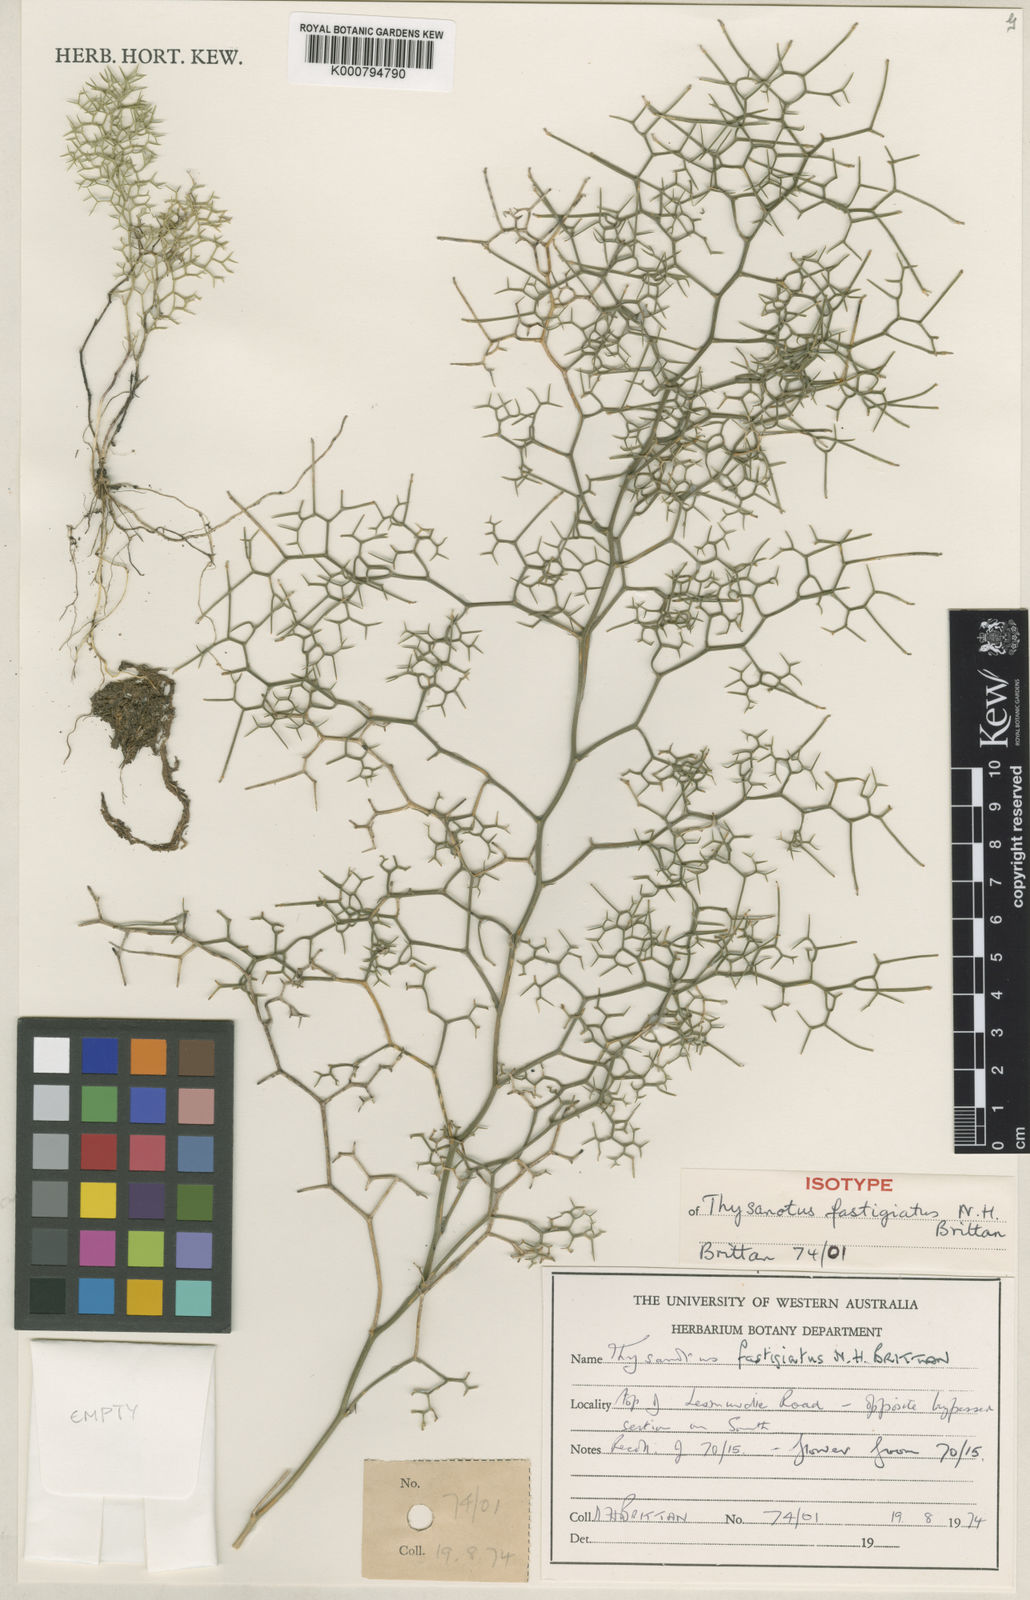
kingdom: Plantae
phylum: Tracheophyta
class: Liliopsida
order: Asparagales
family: Asparagaceae
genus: Thysanotus
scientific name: Thysanotus fastigiatus
